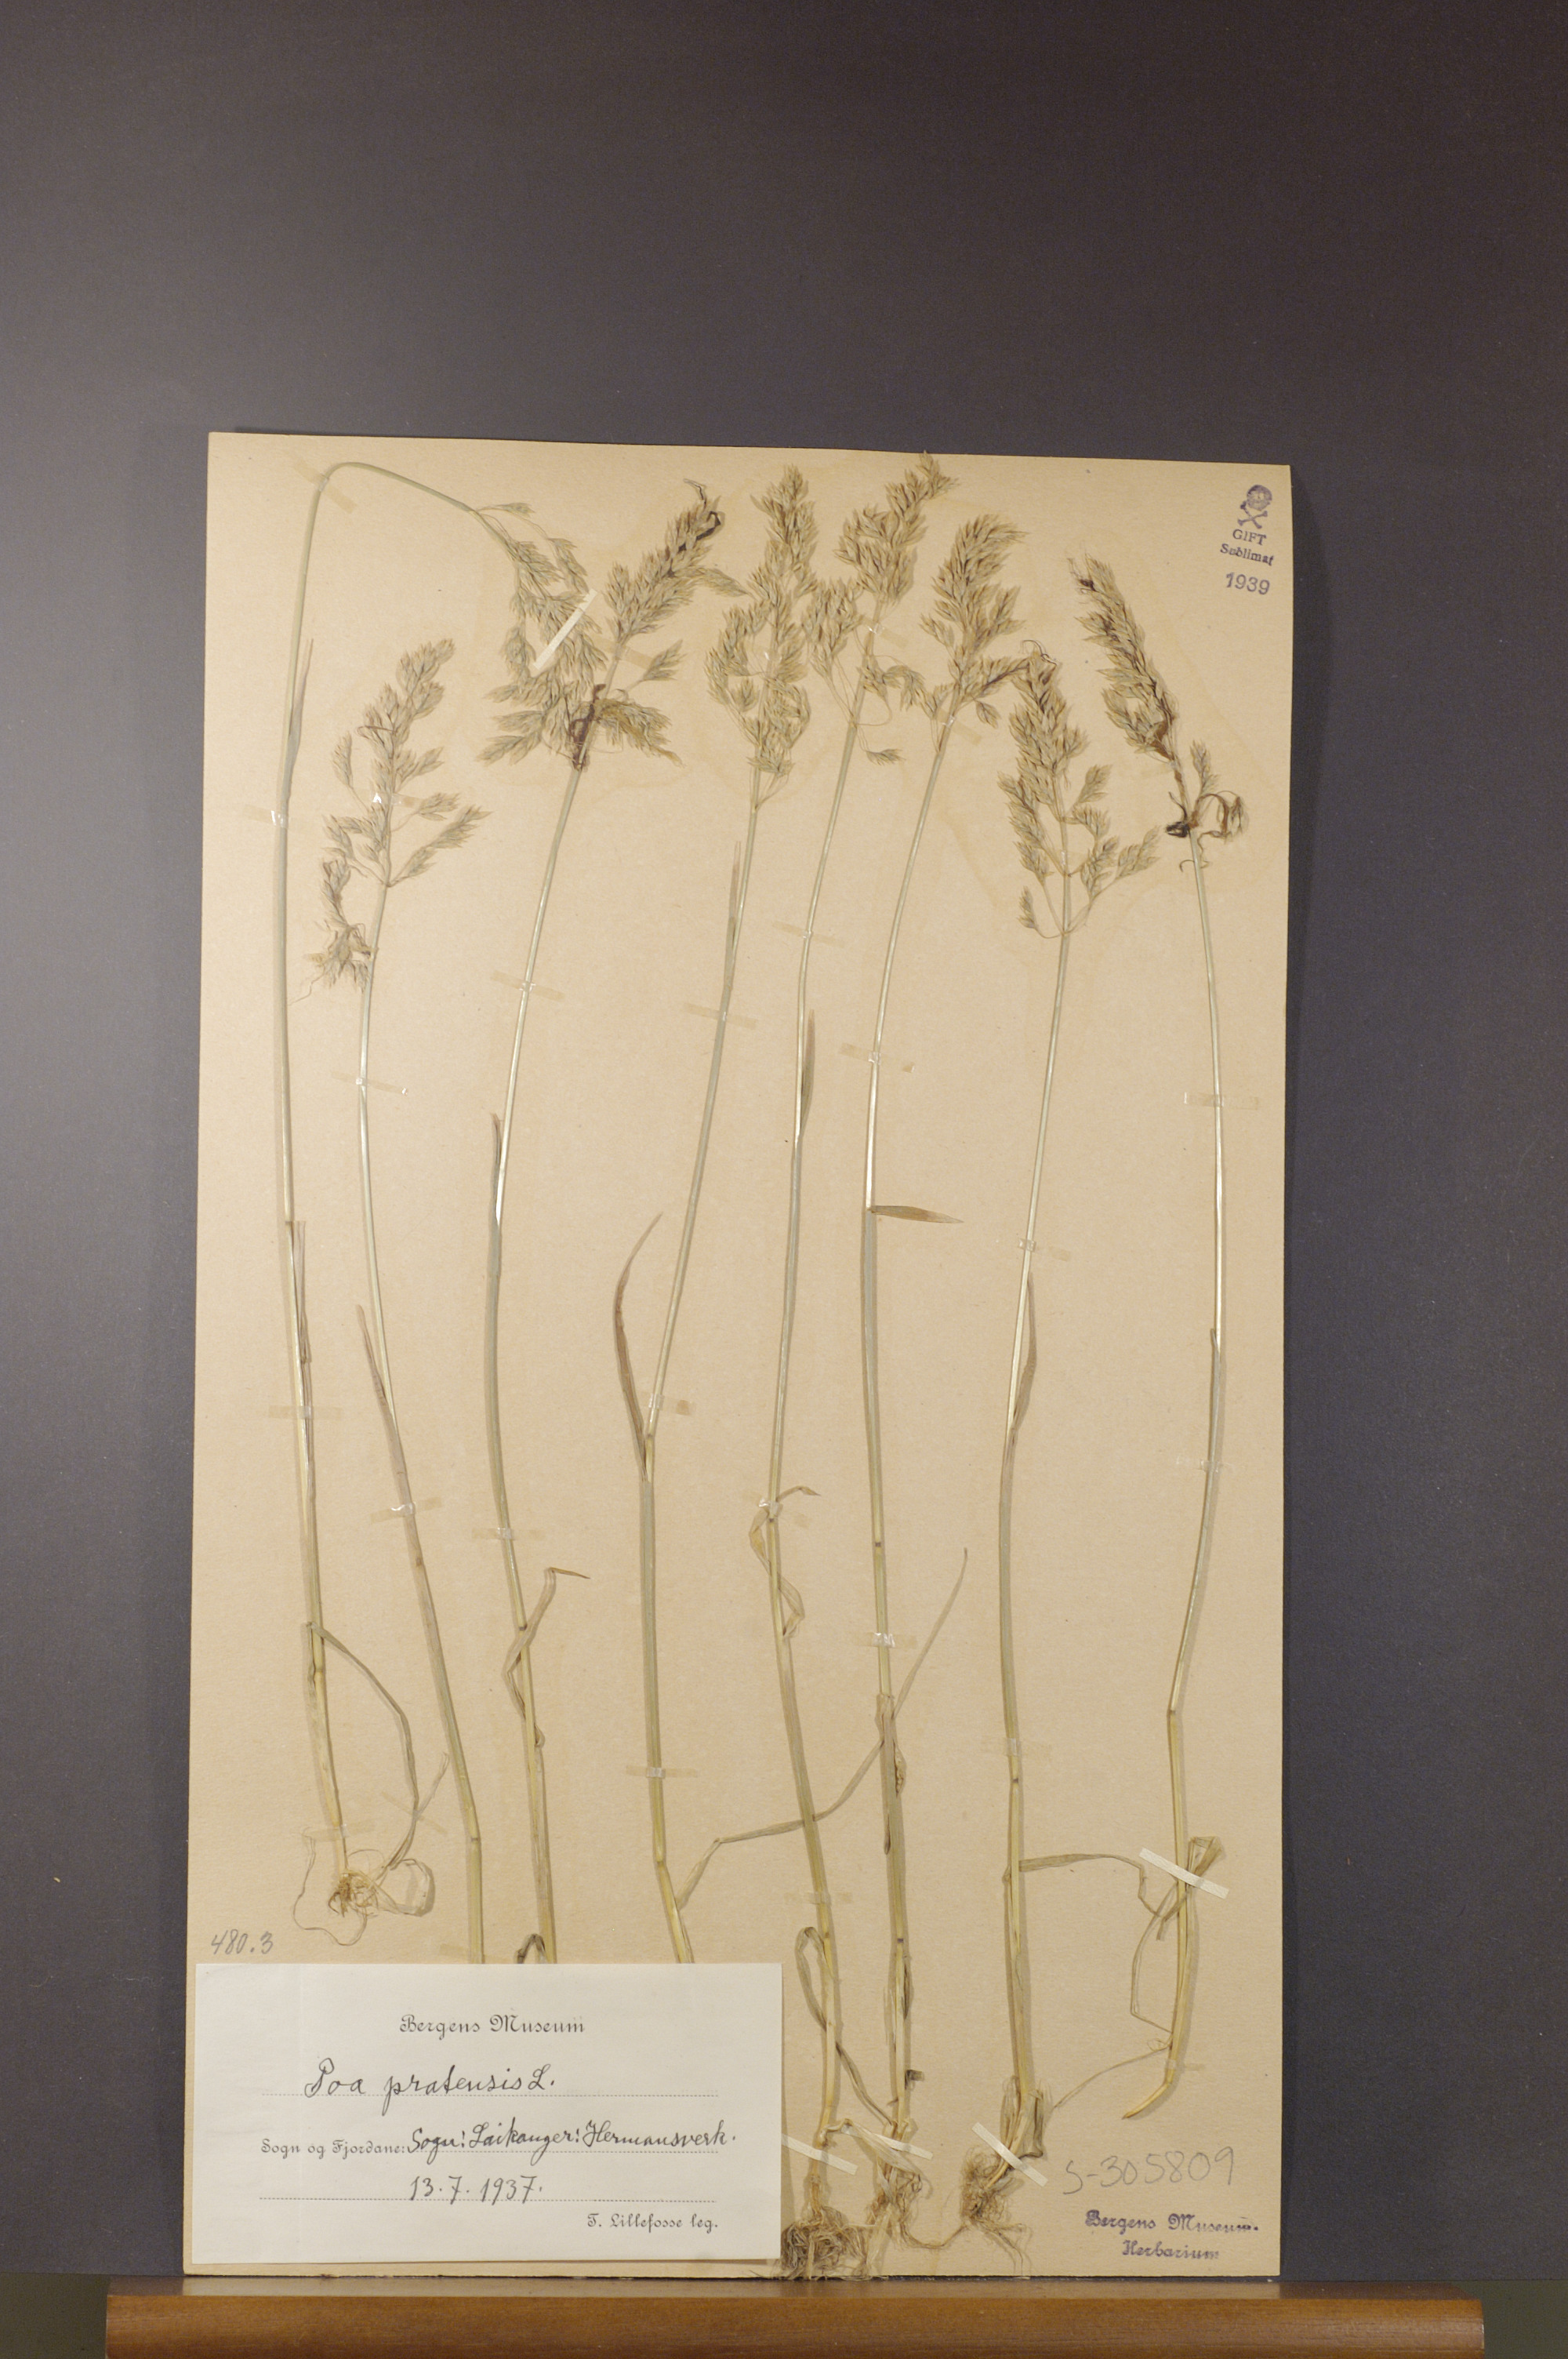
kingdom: Plantae
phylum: Tracheophyta
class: Liliopsida
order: Poales
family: Poaceae
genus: Poa
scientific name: Poa pratensis
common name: Kentucky bluegrass
